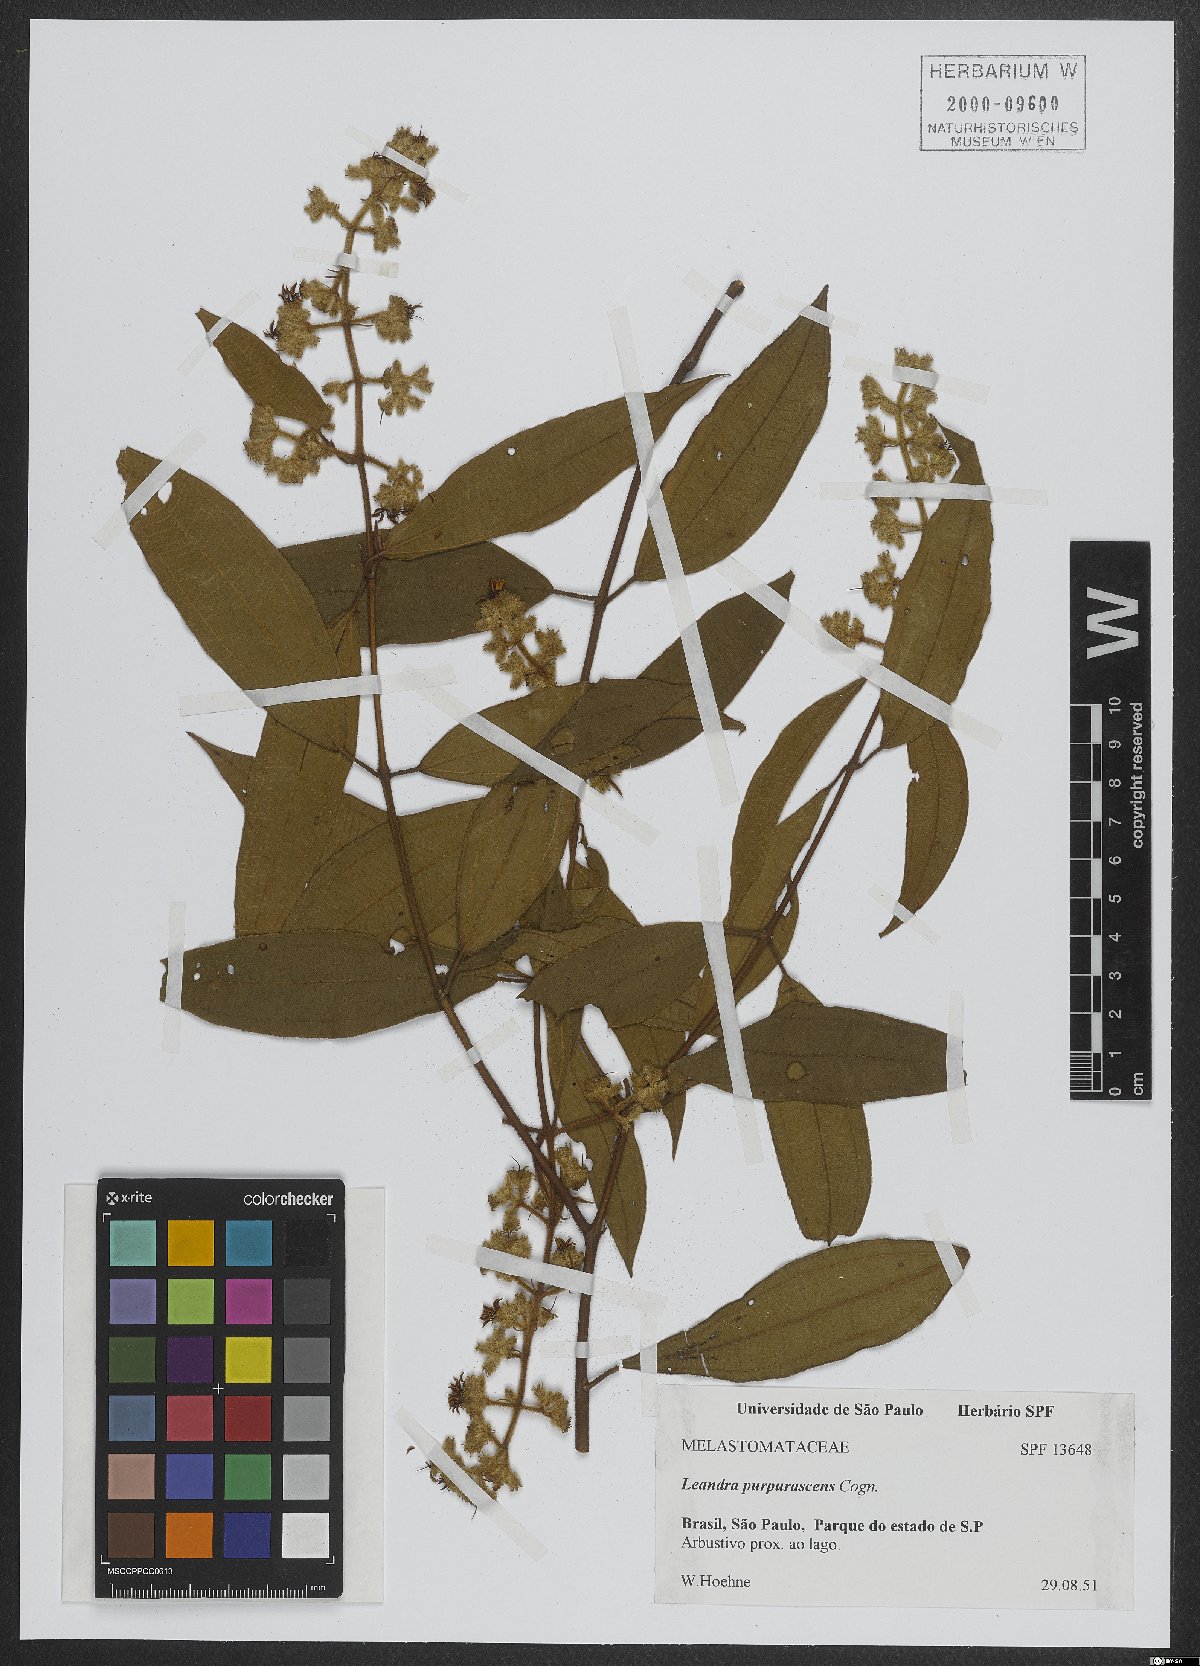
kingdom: Plantae
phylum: Tracheophyta
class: Magnoliopsida
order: Myrtales
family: Melastomataceae
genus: Miconia
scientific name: Miconia microstachya
